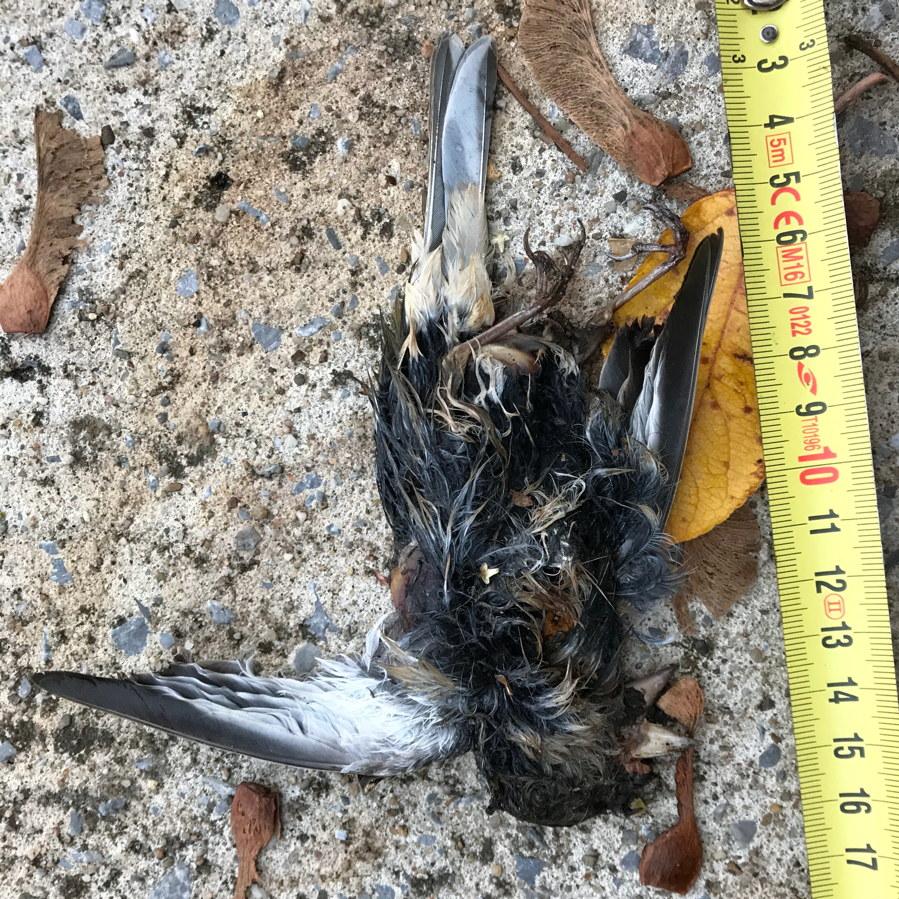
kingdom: Animalia
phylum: Chordata
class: Aves
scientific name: Aves
